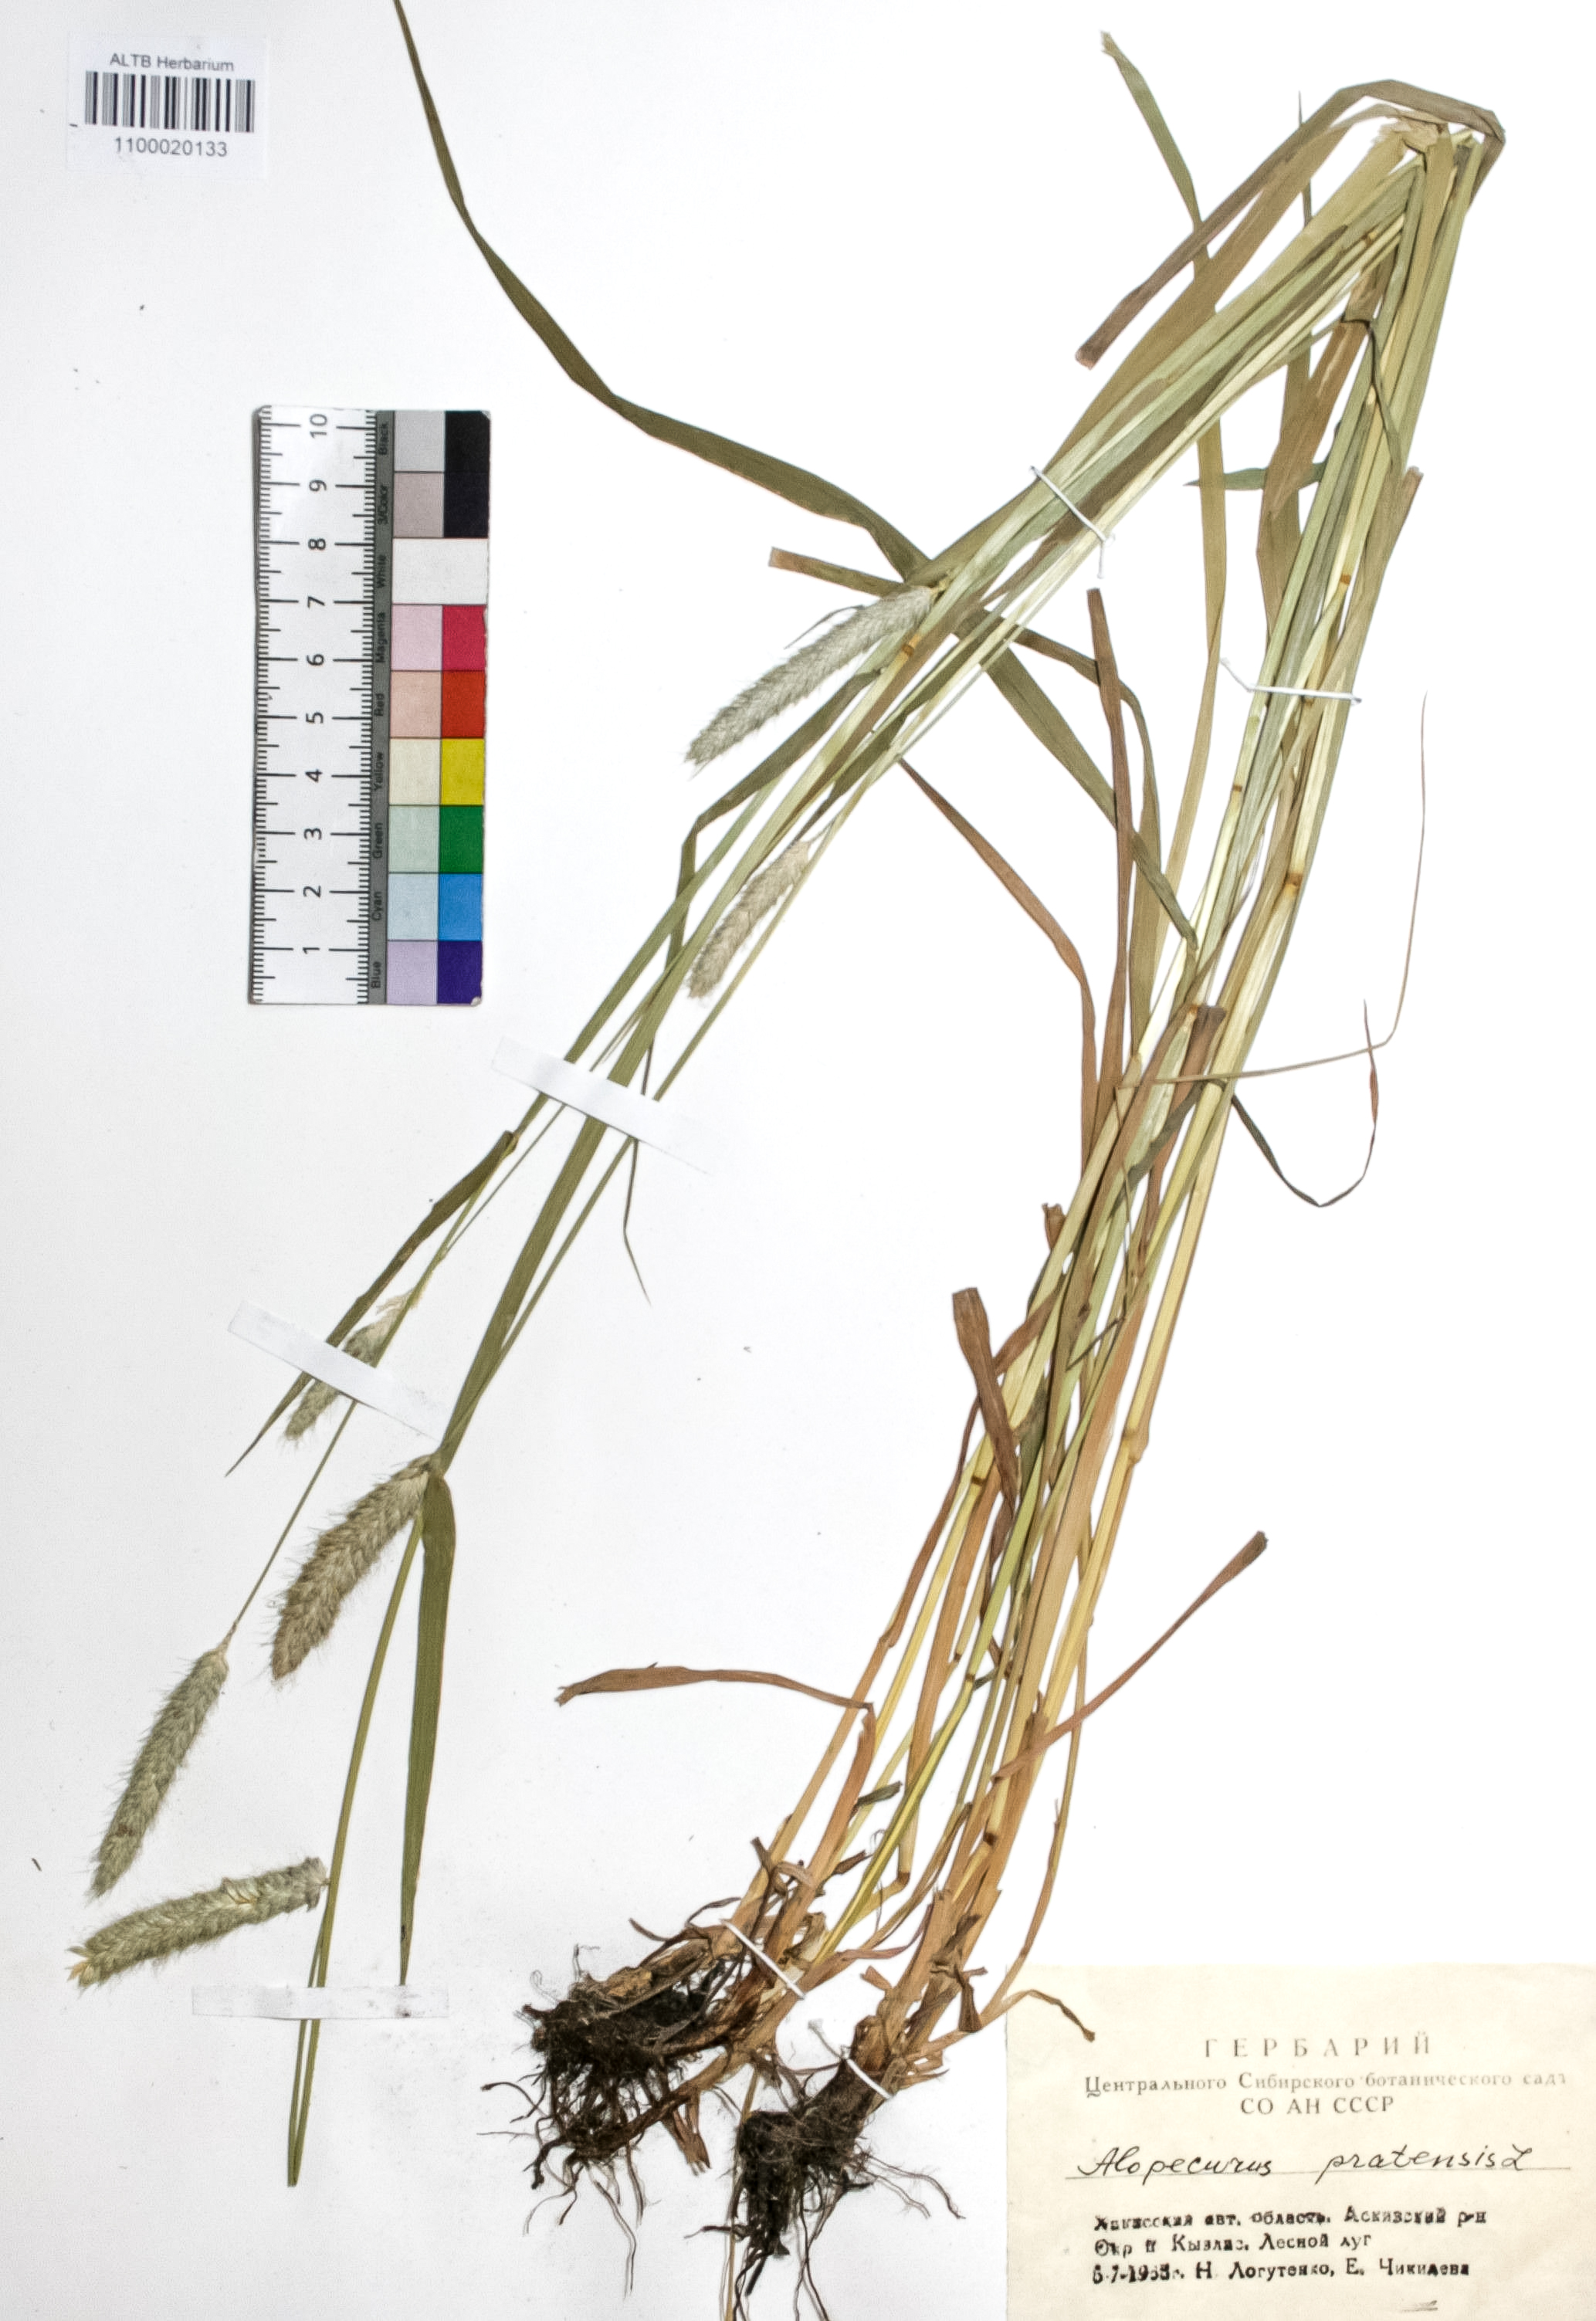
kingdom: Plantae
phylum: Tracheophyta
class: Liliopsida
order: Poales
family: Poaceae
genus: Alopecurus
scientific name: Alopecurus pratensis
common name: Meadow foxtail
